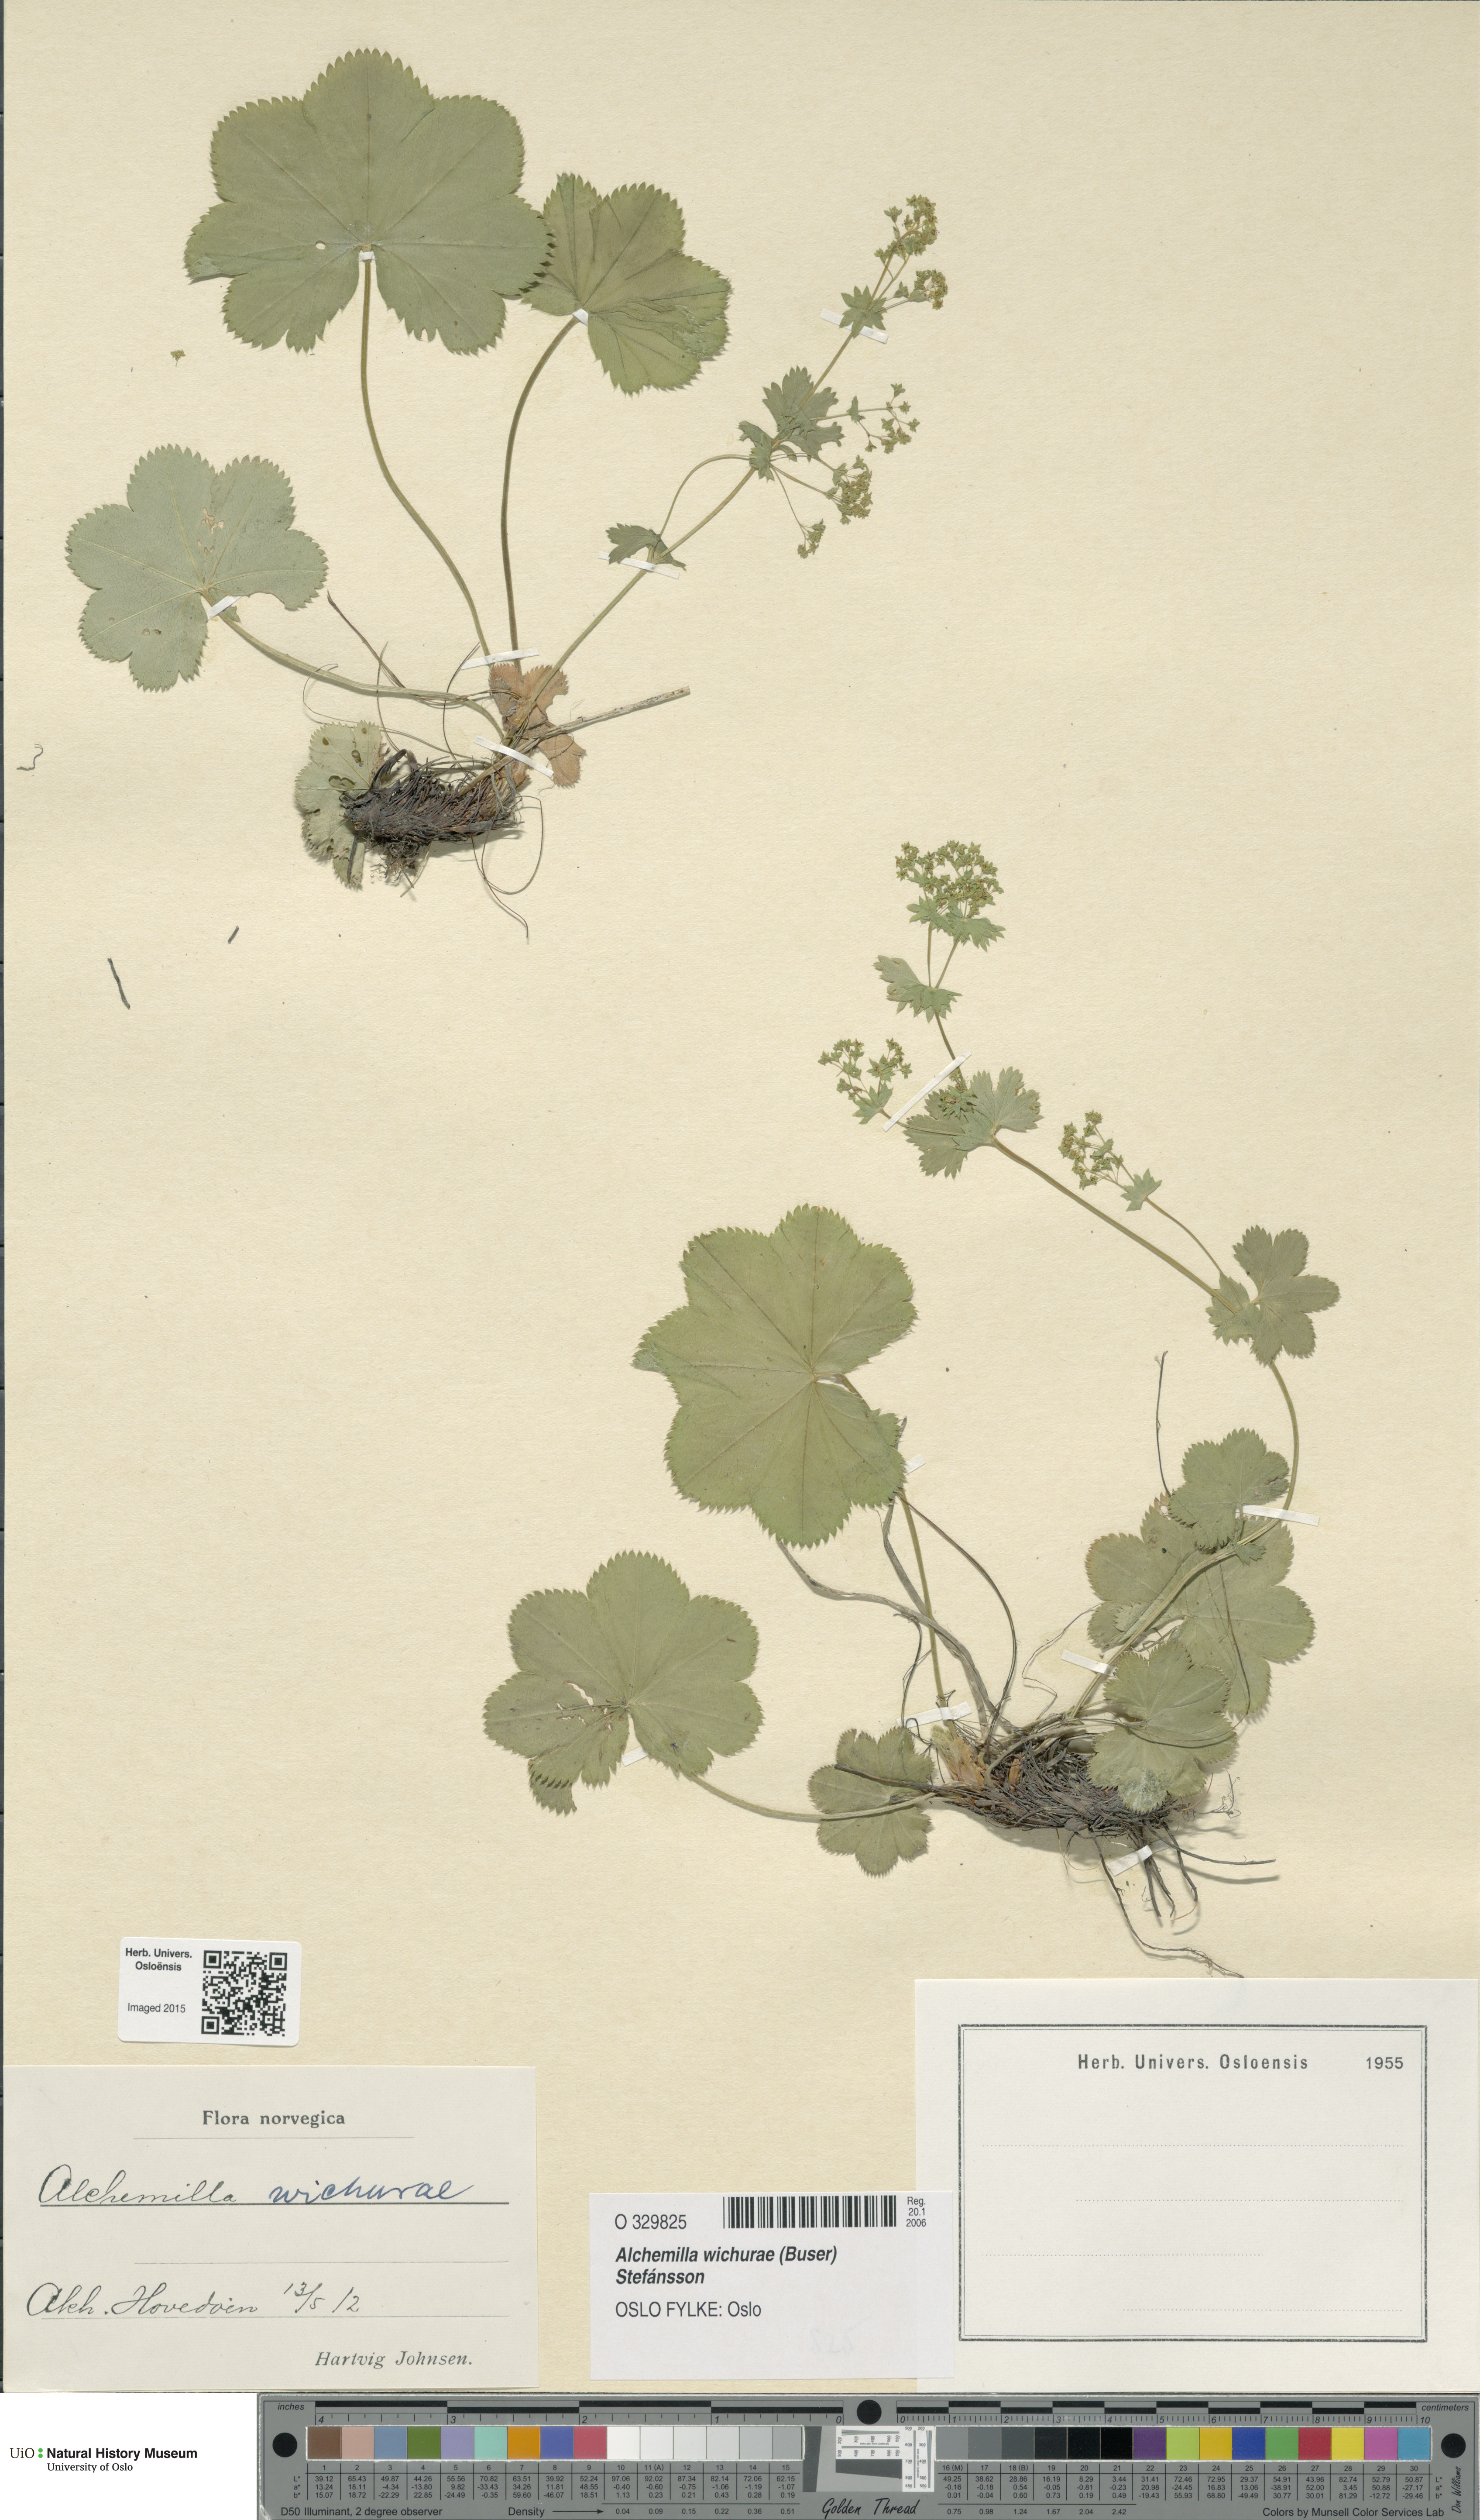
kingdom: Plantae
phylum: Tracheophyta
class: Magnoliopsida
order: Rosales
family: Rosaceae
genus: Alchemilla
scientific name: Alchemilla wichurae
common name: Rock lady's mantle
